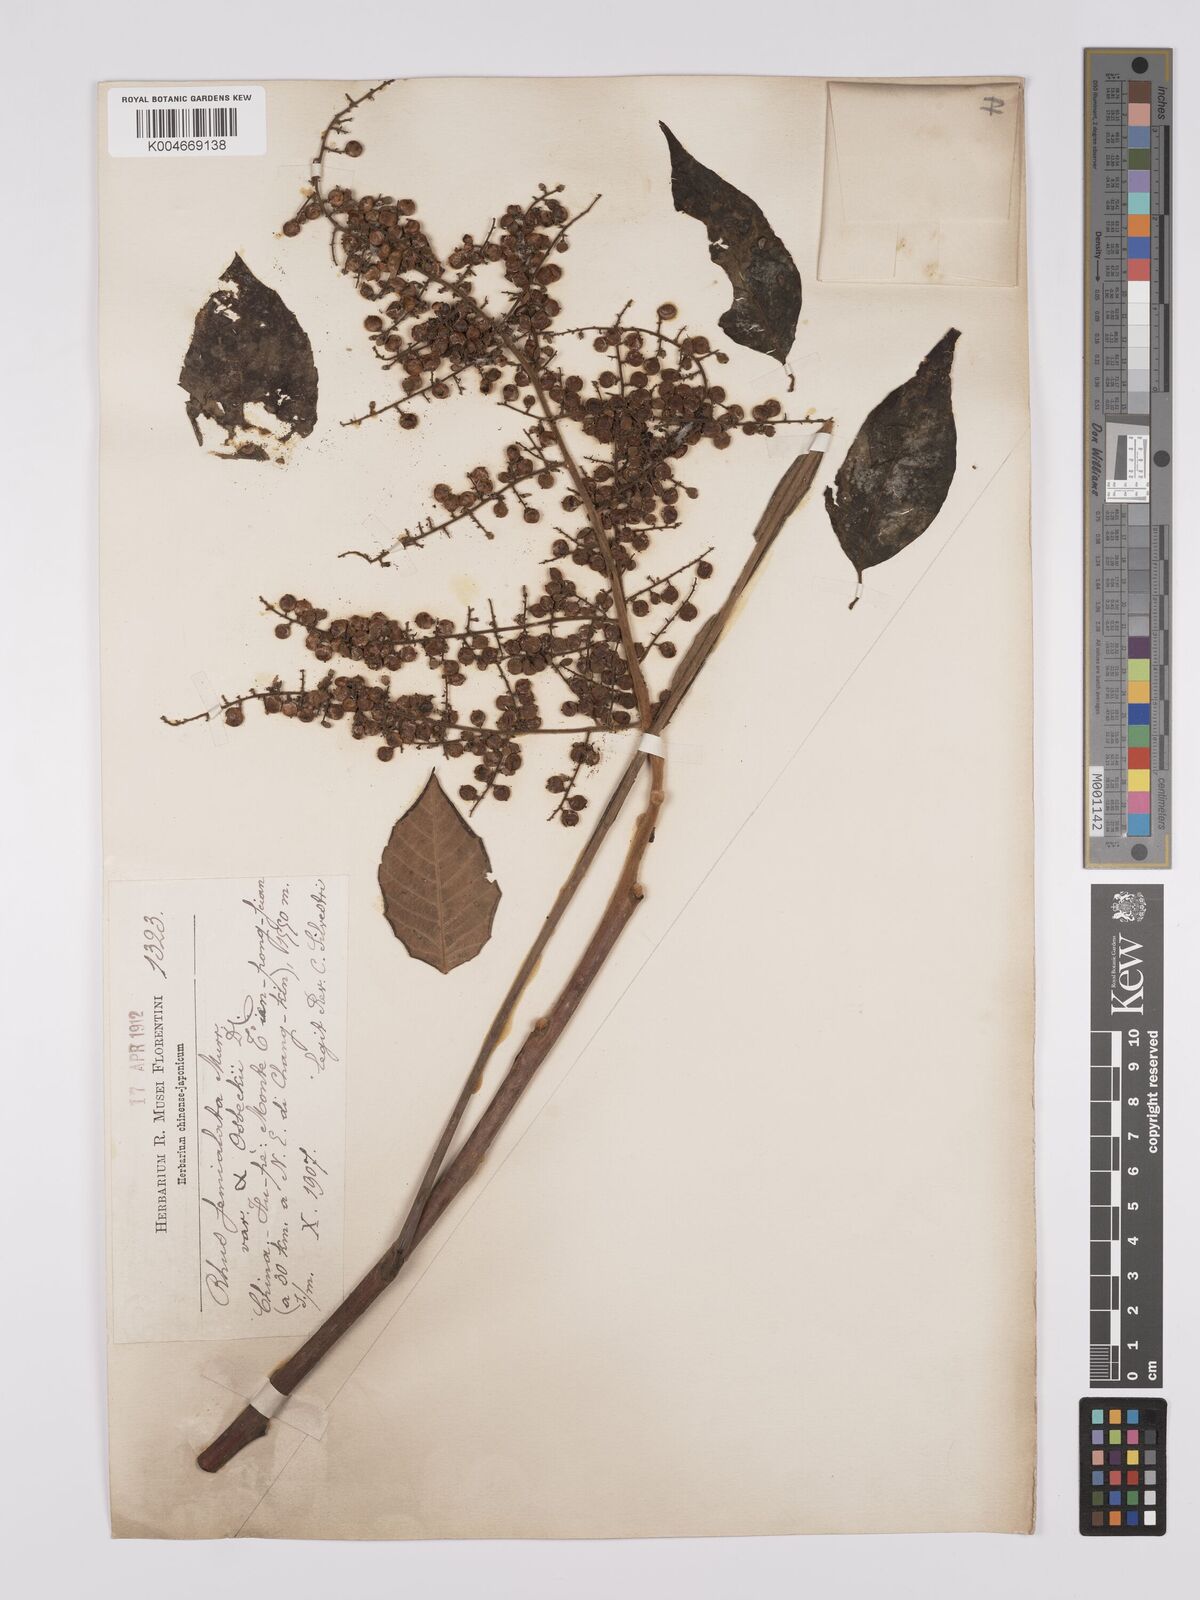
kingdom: Plantae
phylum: Tracheophyta
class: Magnoliopsida
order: Sapindales
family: Simaroubaceae
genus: Brucea
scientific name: Brucea javanica
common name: Macassar kernels
